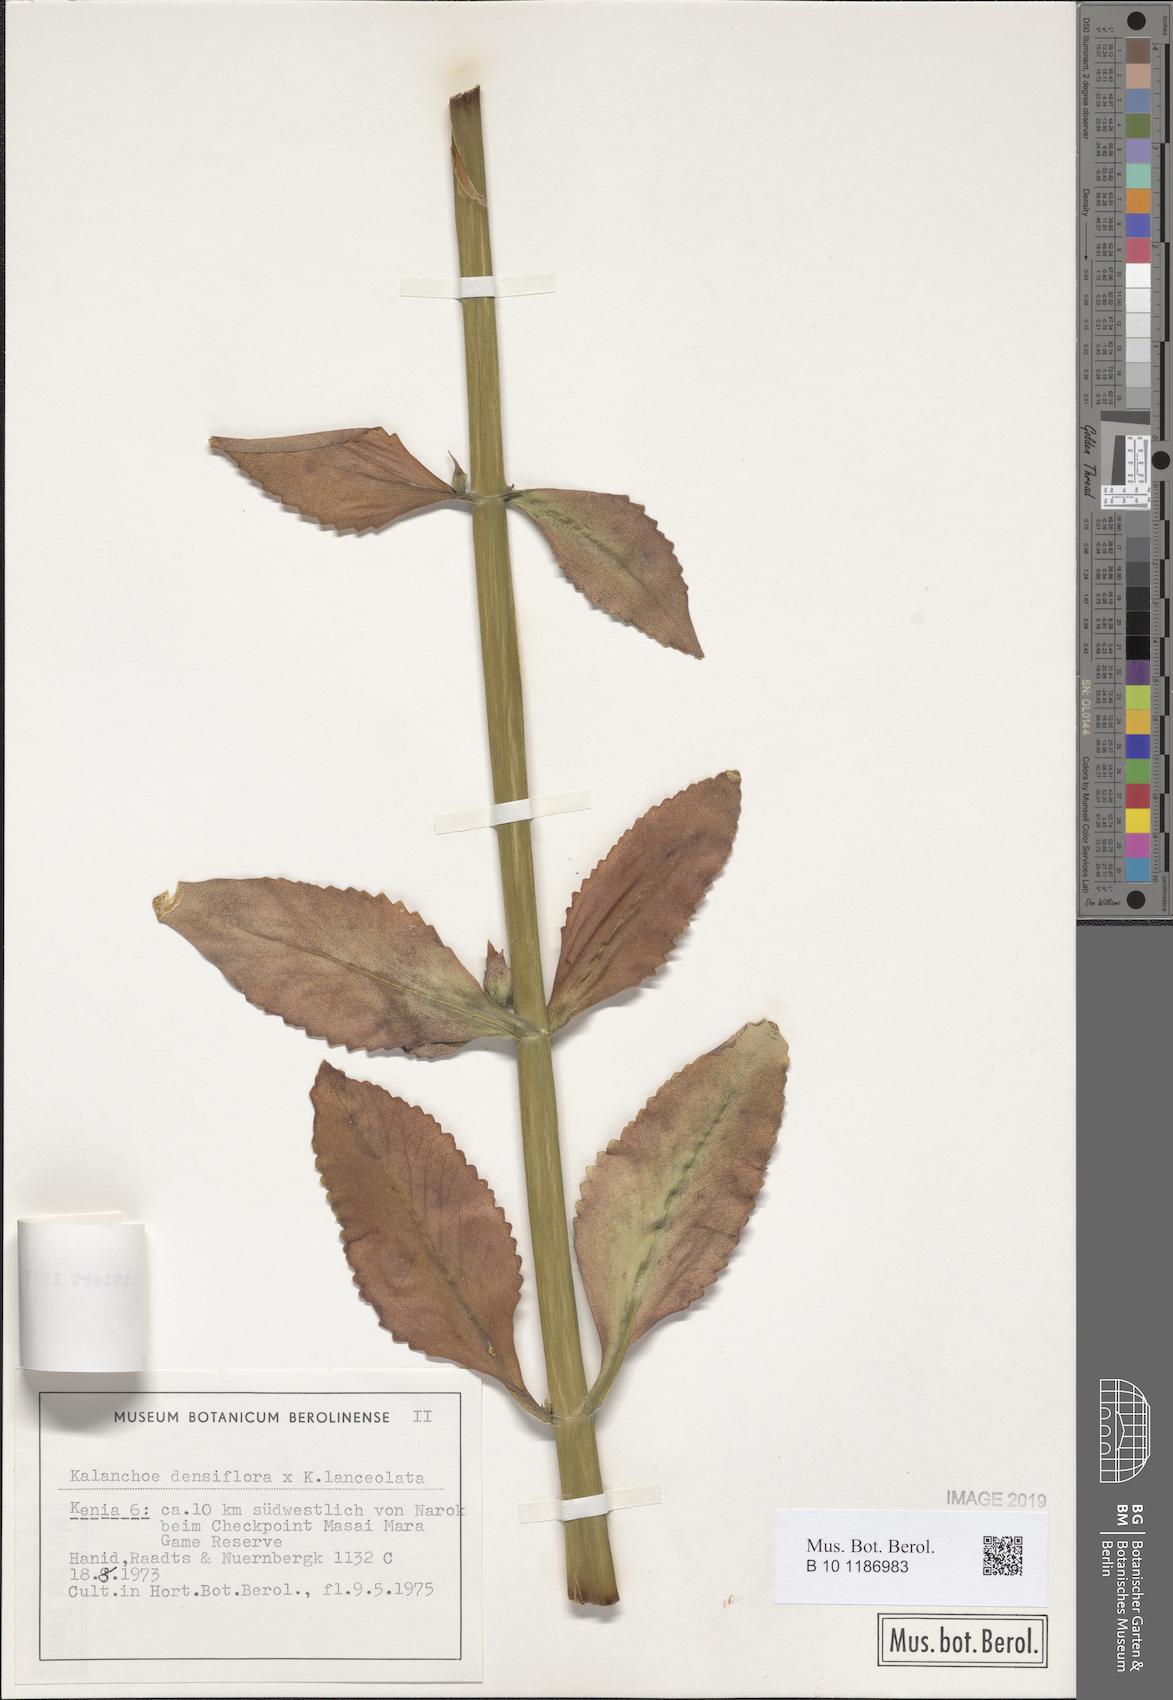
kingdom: Plantae
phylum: Tracheophyta
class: Magnoliopsida
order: Saxifragales
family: Crassulaceae
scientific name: Crassulaceae
